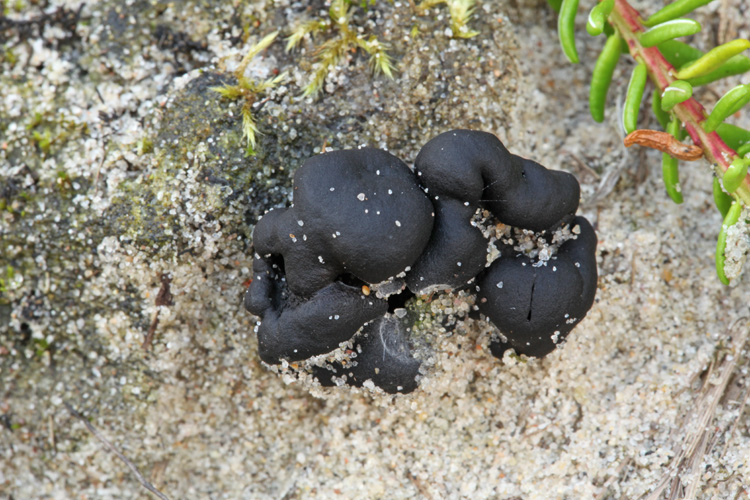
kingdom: Fungi
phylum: Ascomycota
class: Geoglossomycetes
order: Geoglossales
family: Geoglossaceae
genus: Sabuloglossum
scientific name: Sabuloglossum arenarium
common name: klit-jordtunge
